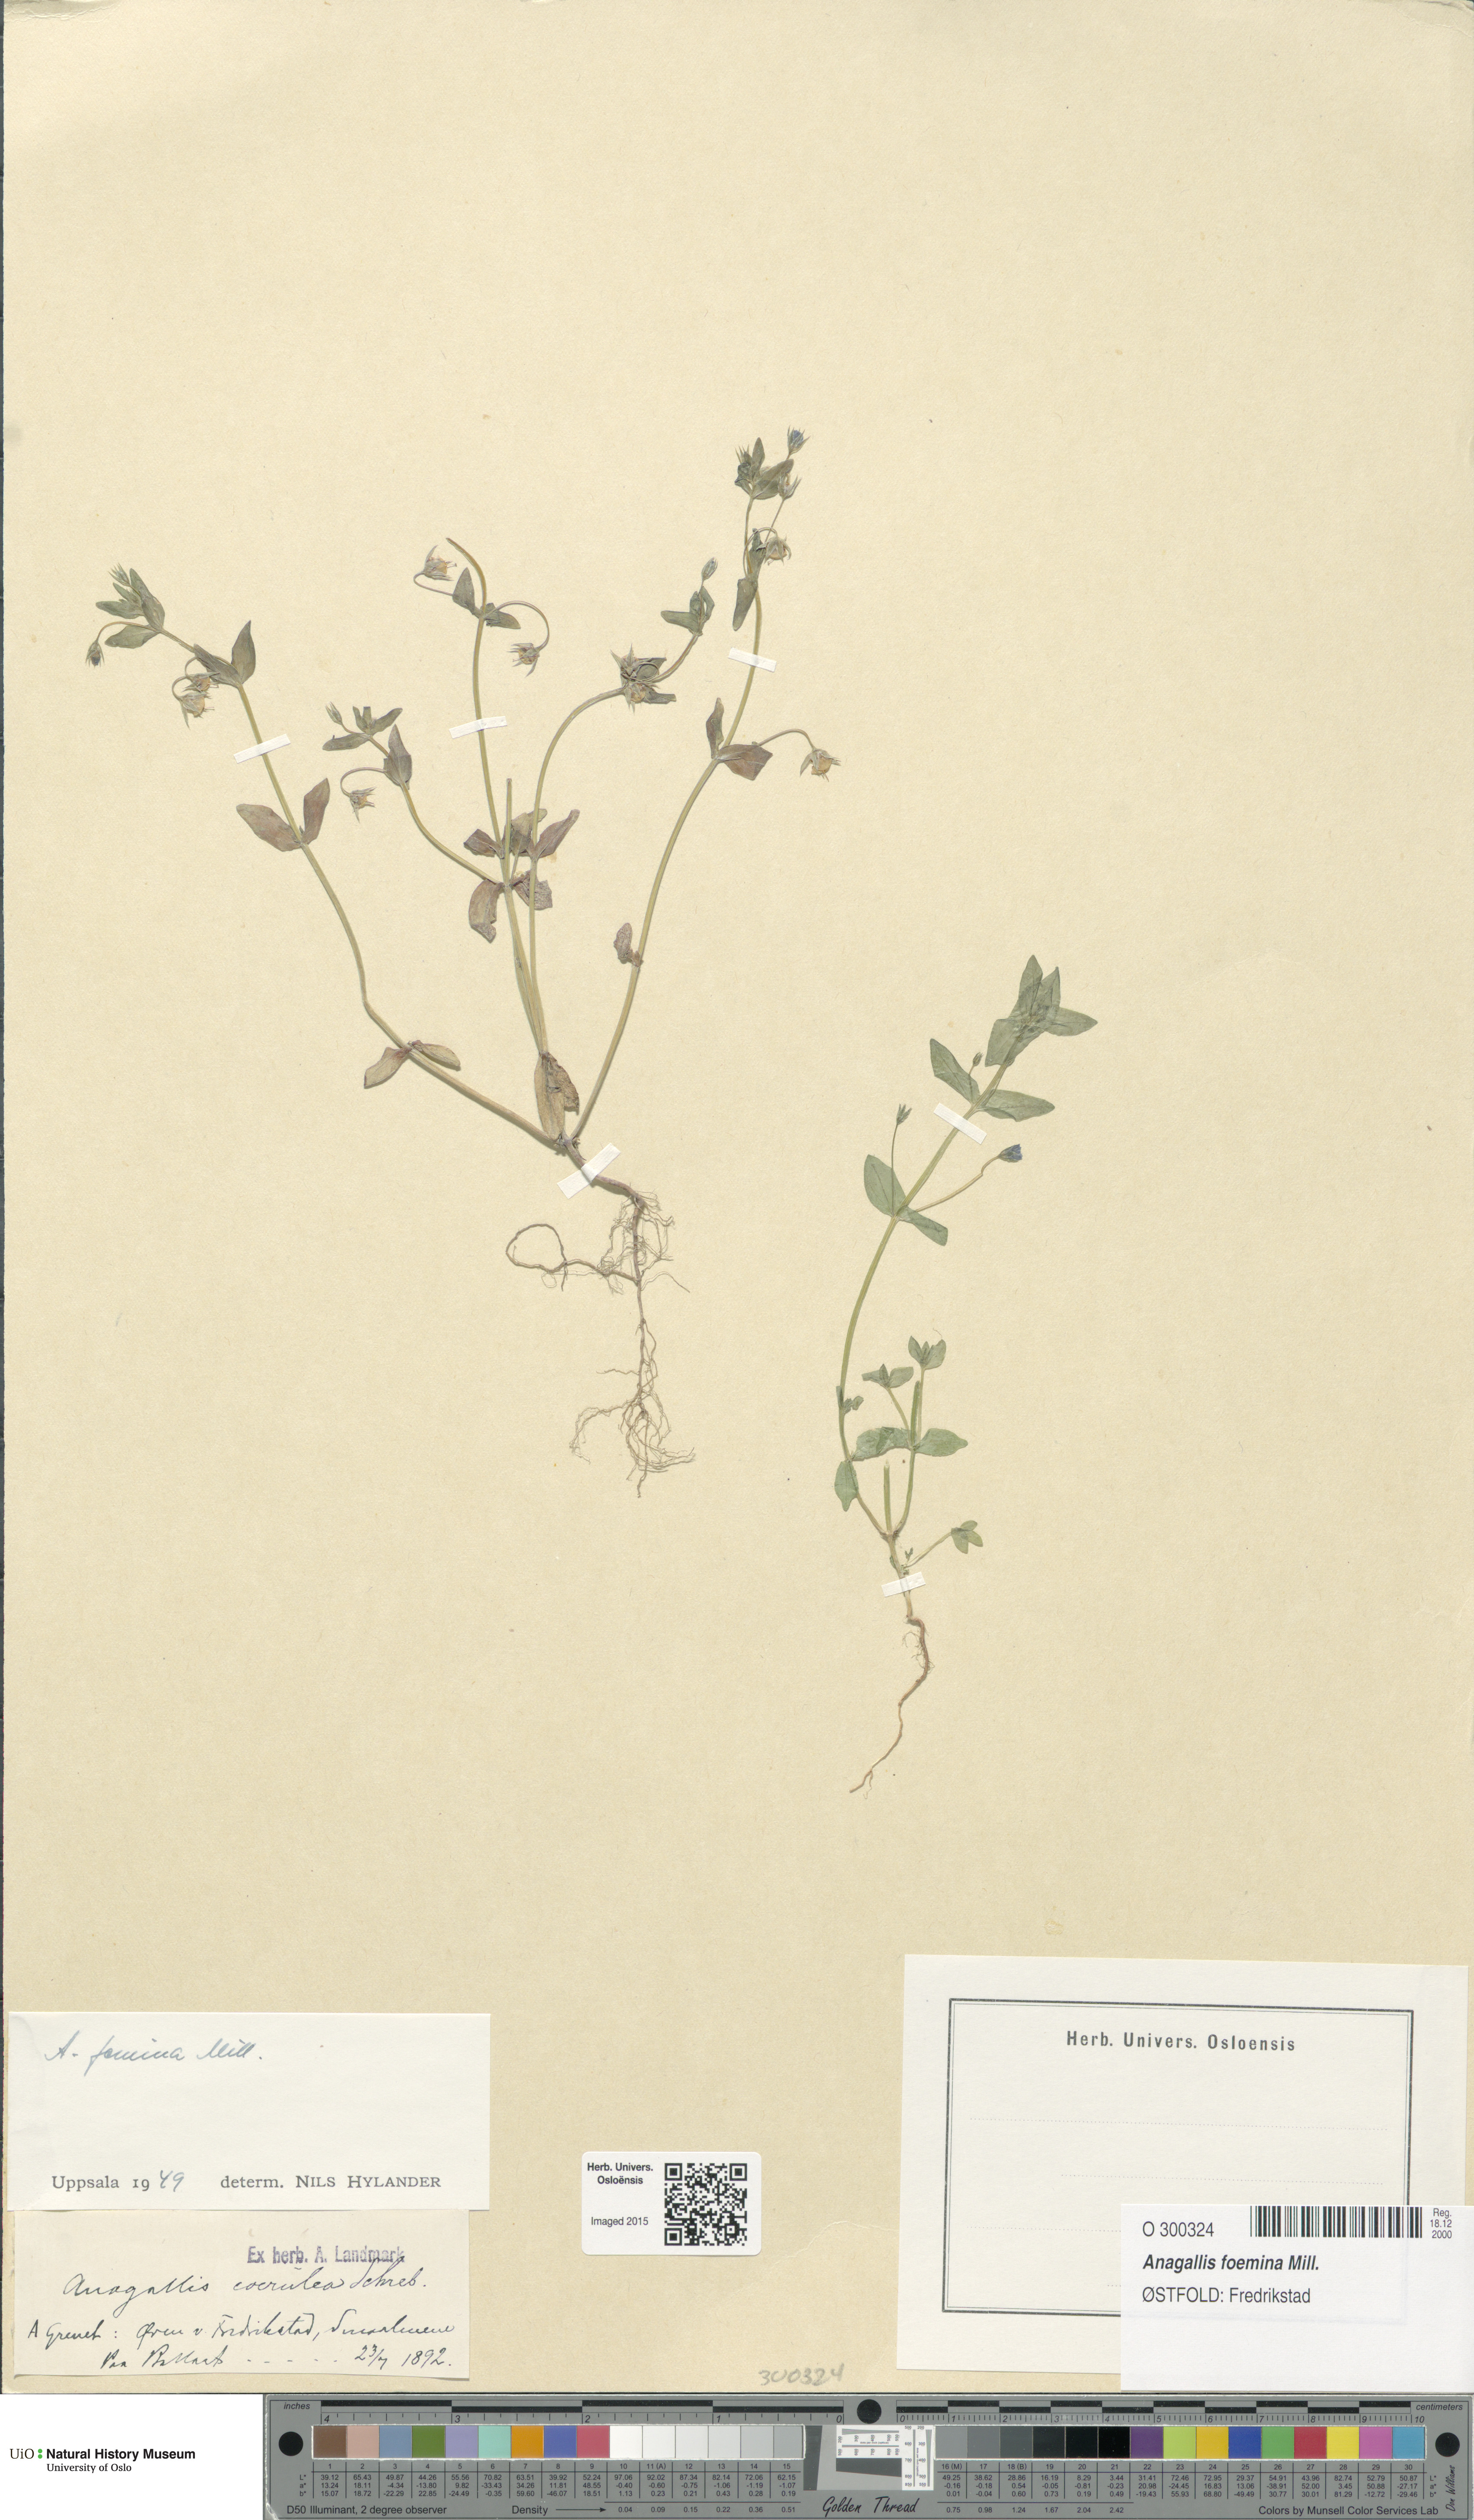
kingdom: Plantae
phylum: Tracheophyta
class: Magnoliopsida
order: Ericales
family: Primulaceae
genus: Lysimachia
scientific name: Lysimachia foemina
